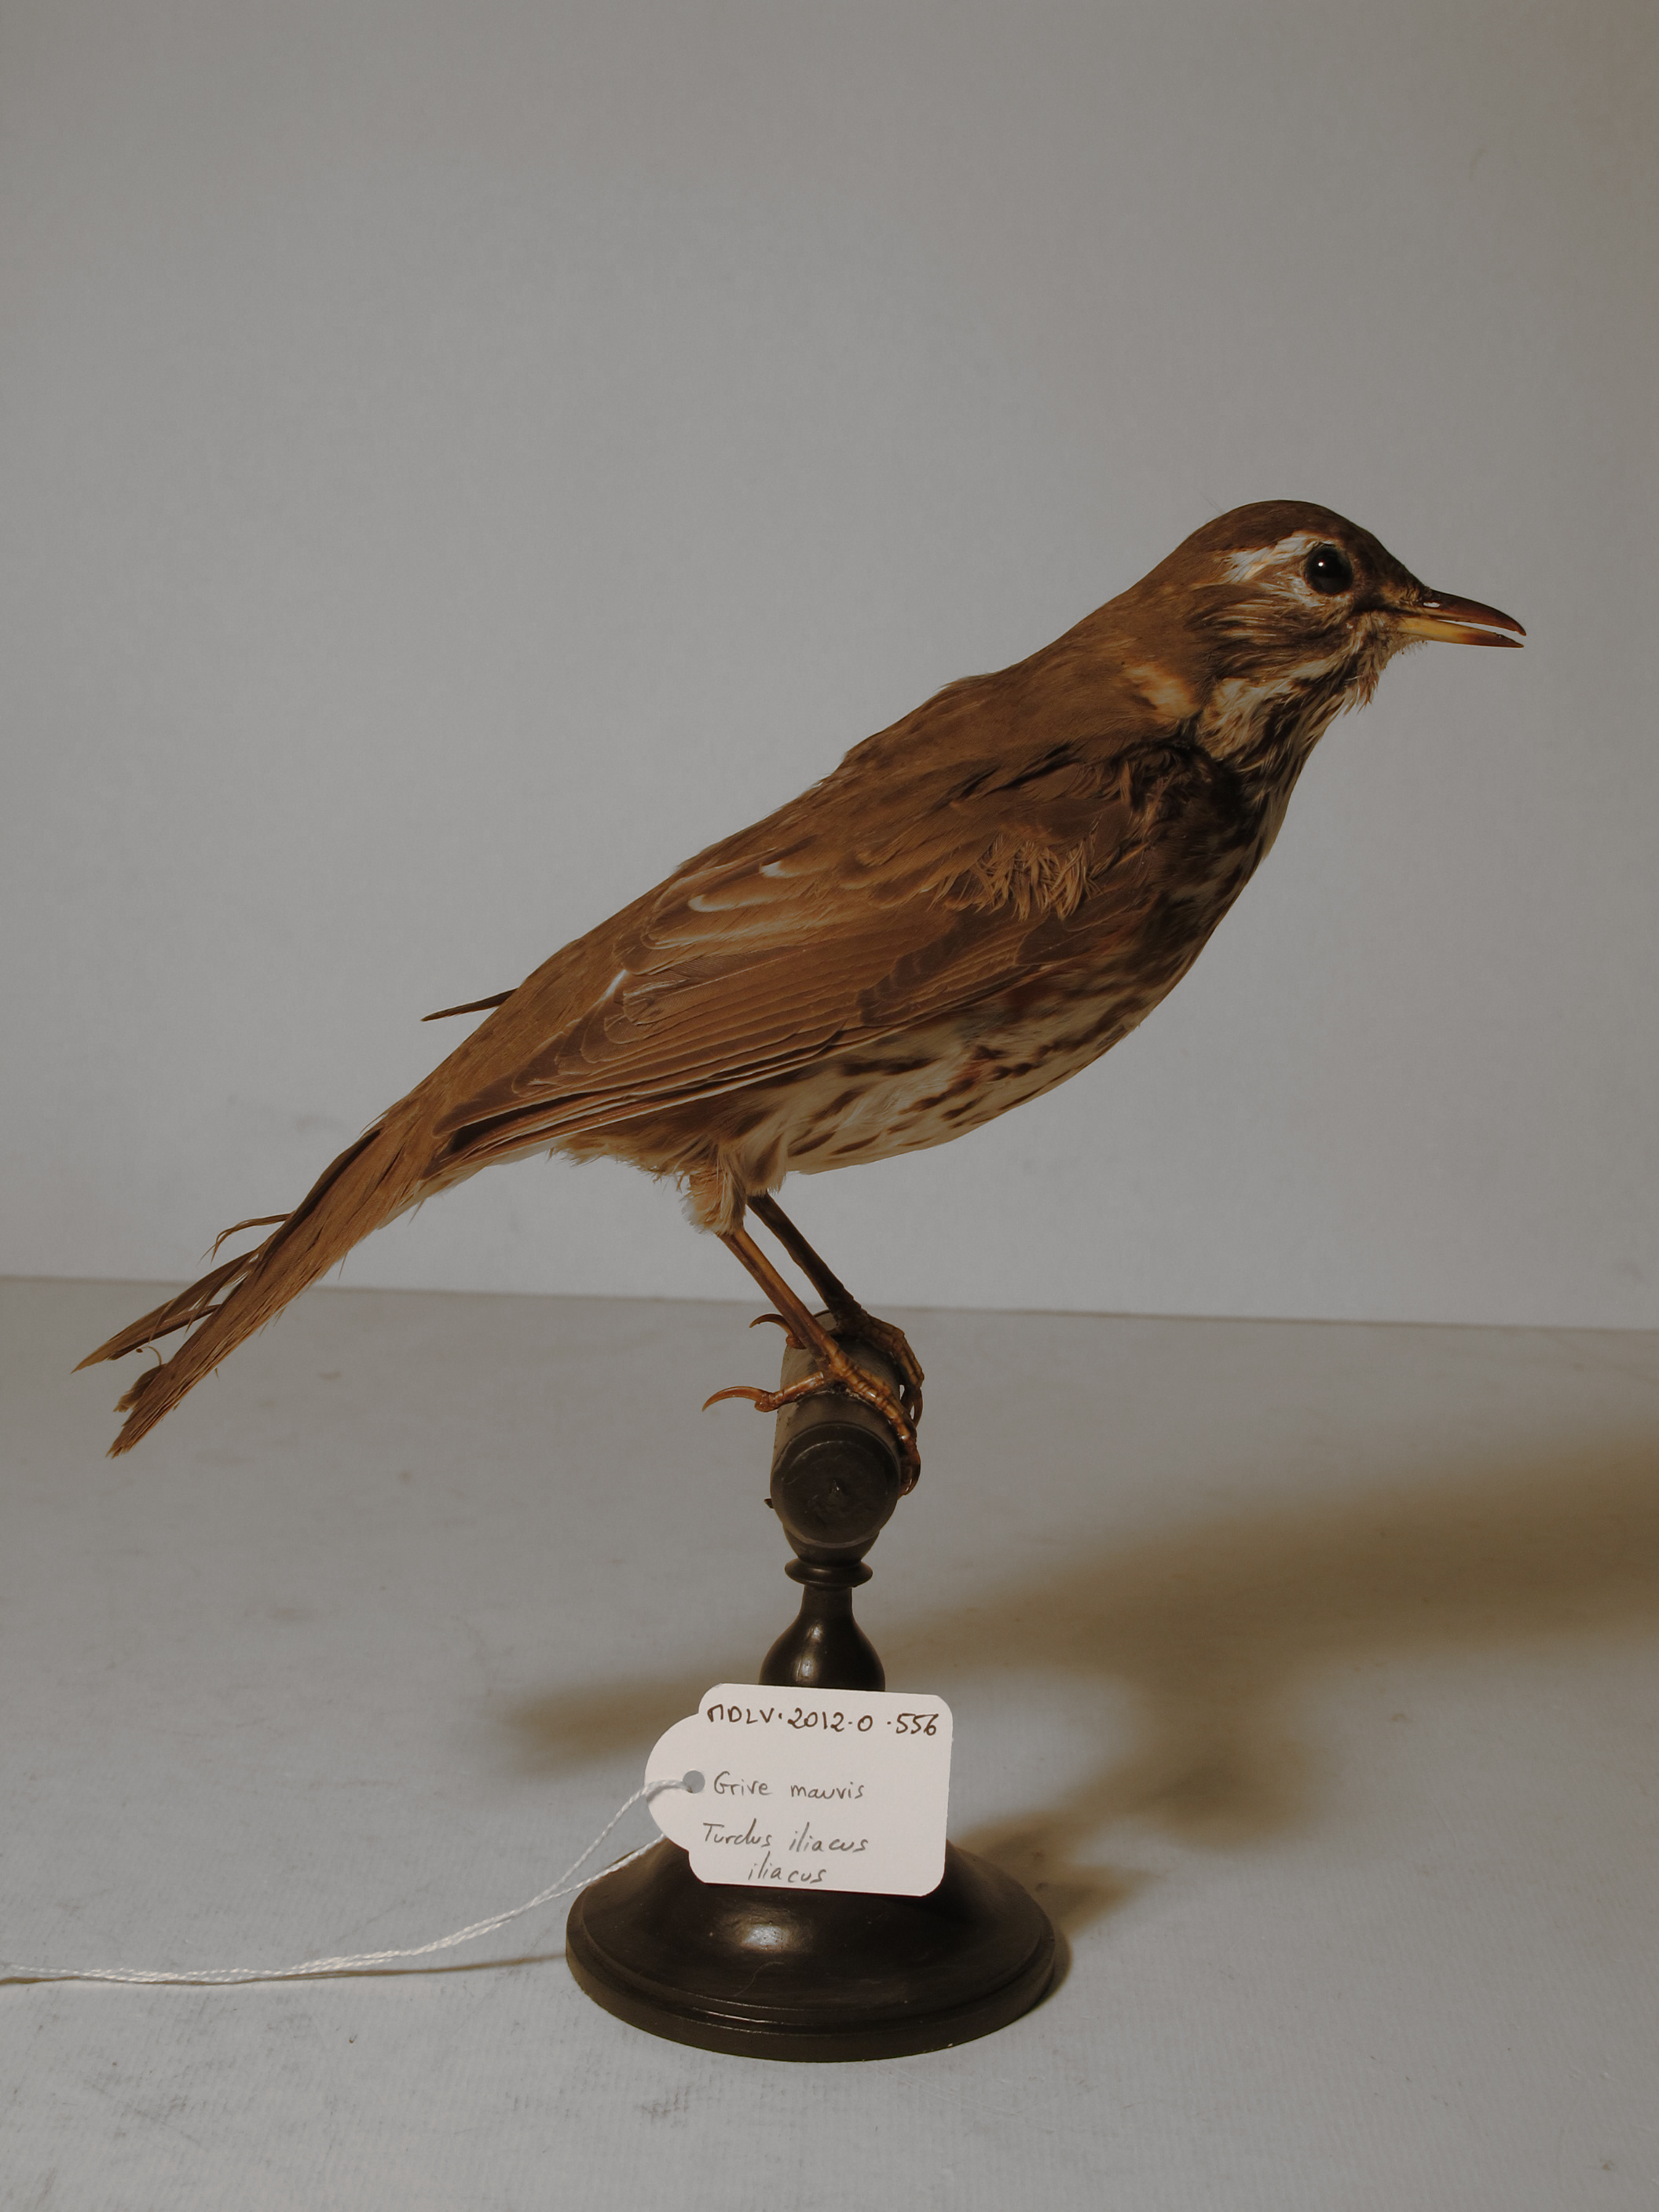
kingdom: Animalia
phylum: Chordata
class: Aves
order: Passeriformes
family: Turdidae
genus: Turdus
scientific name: Turdus iliacus
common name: Redwing
